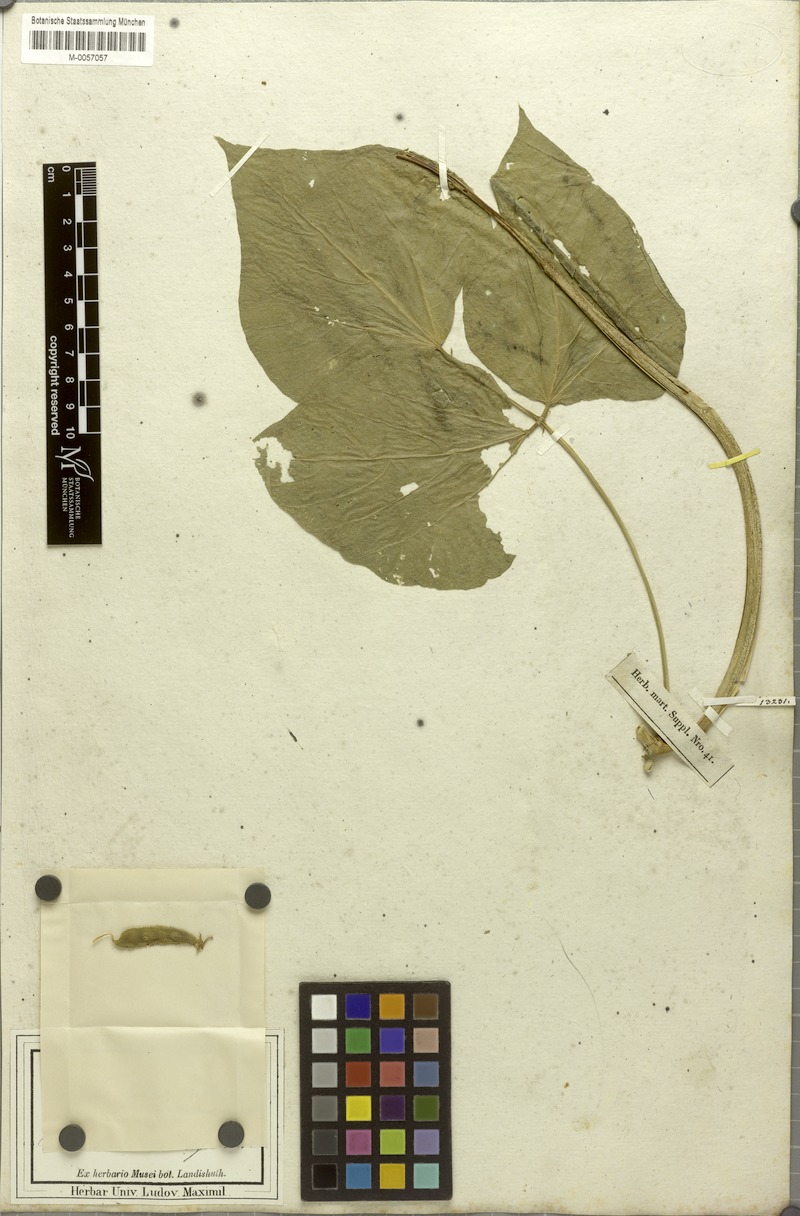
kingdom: Plantae
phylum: Tracheophyta
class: Magnoliopsida
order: Fabales
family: Fabaceae
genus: Lablab
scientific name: Lablab purpureus
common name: Lablab-bean
